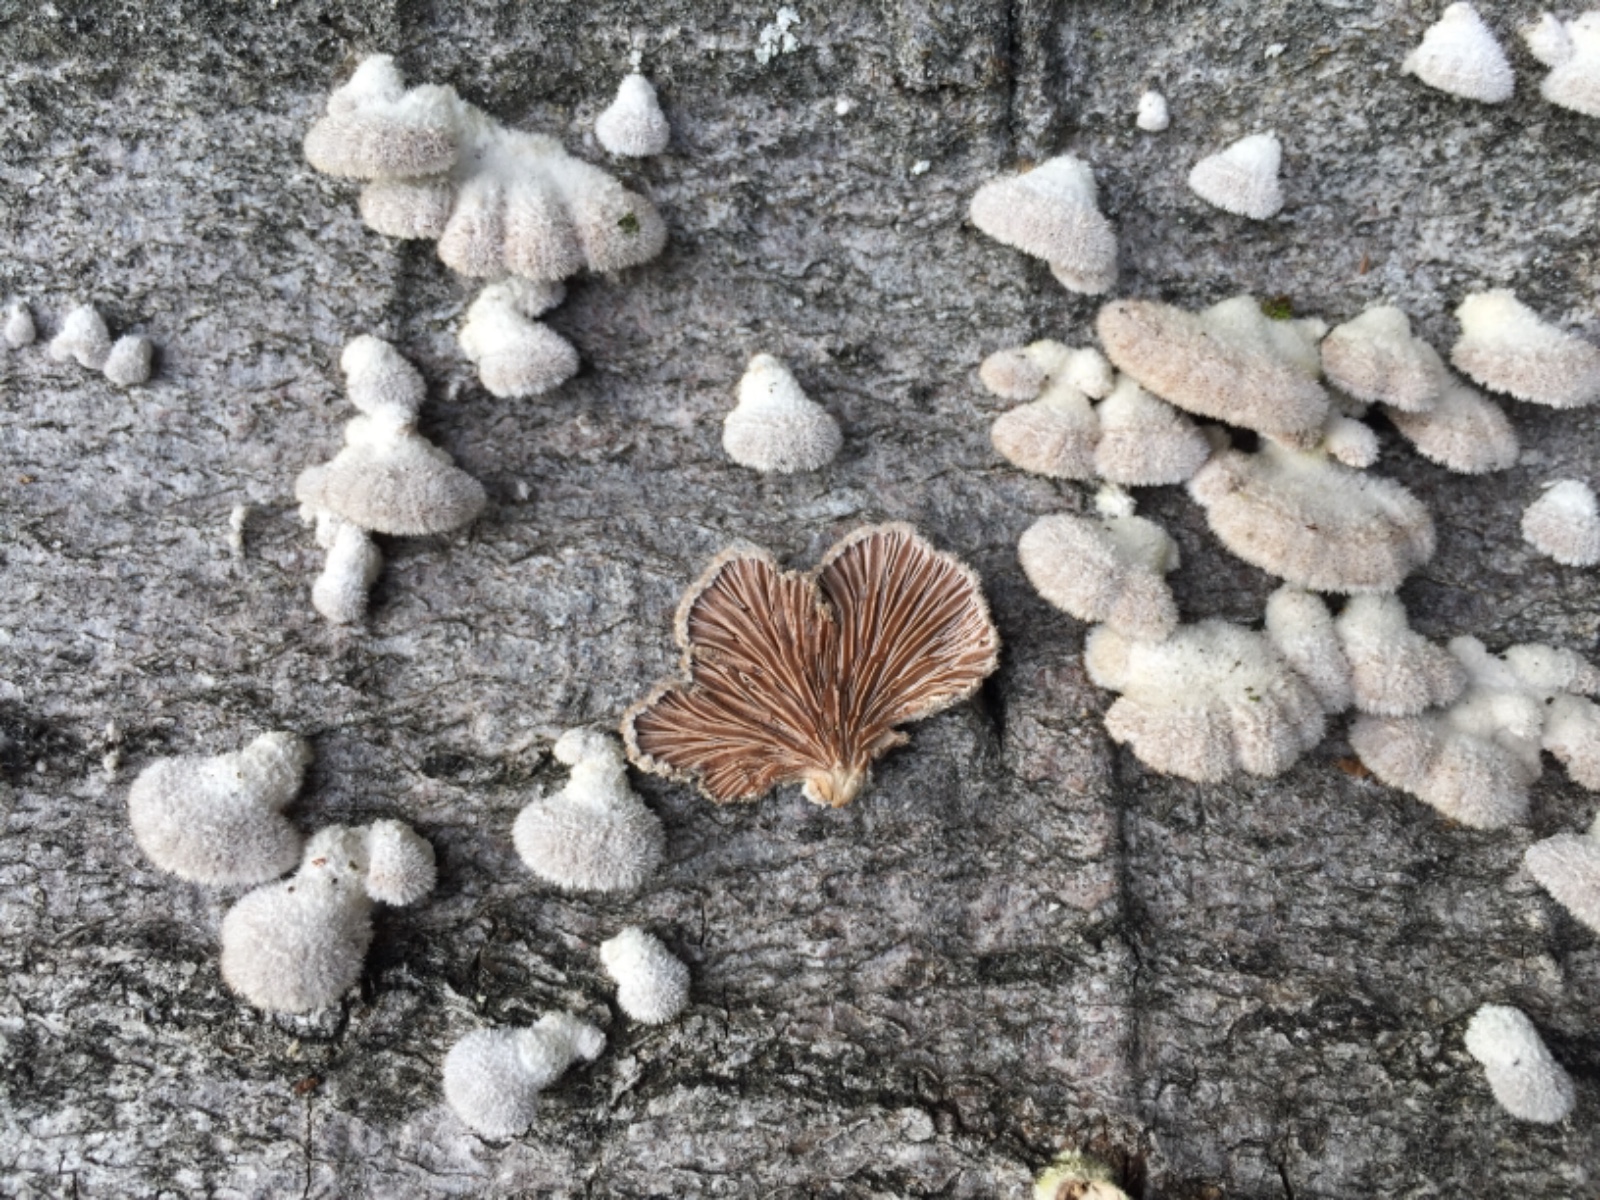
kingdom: Fungi
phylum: Basidiomycota
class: Agaricomycetes
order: Agaricales
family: Schizophyllaceae
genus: Schizophyllum
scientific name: Schizophyllum commune
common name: kløvblad
